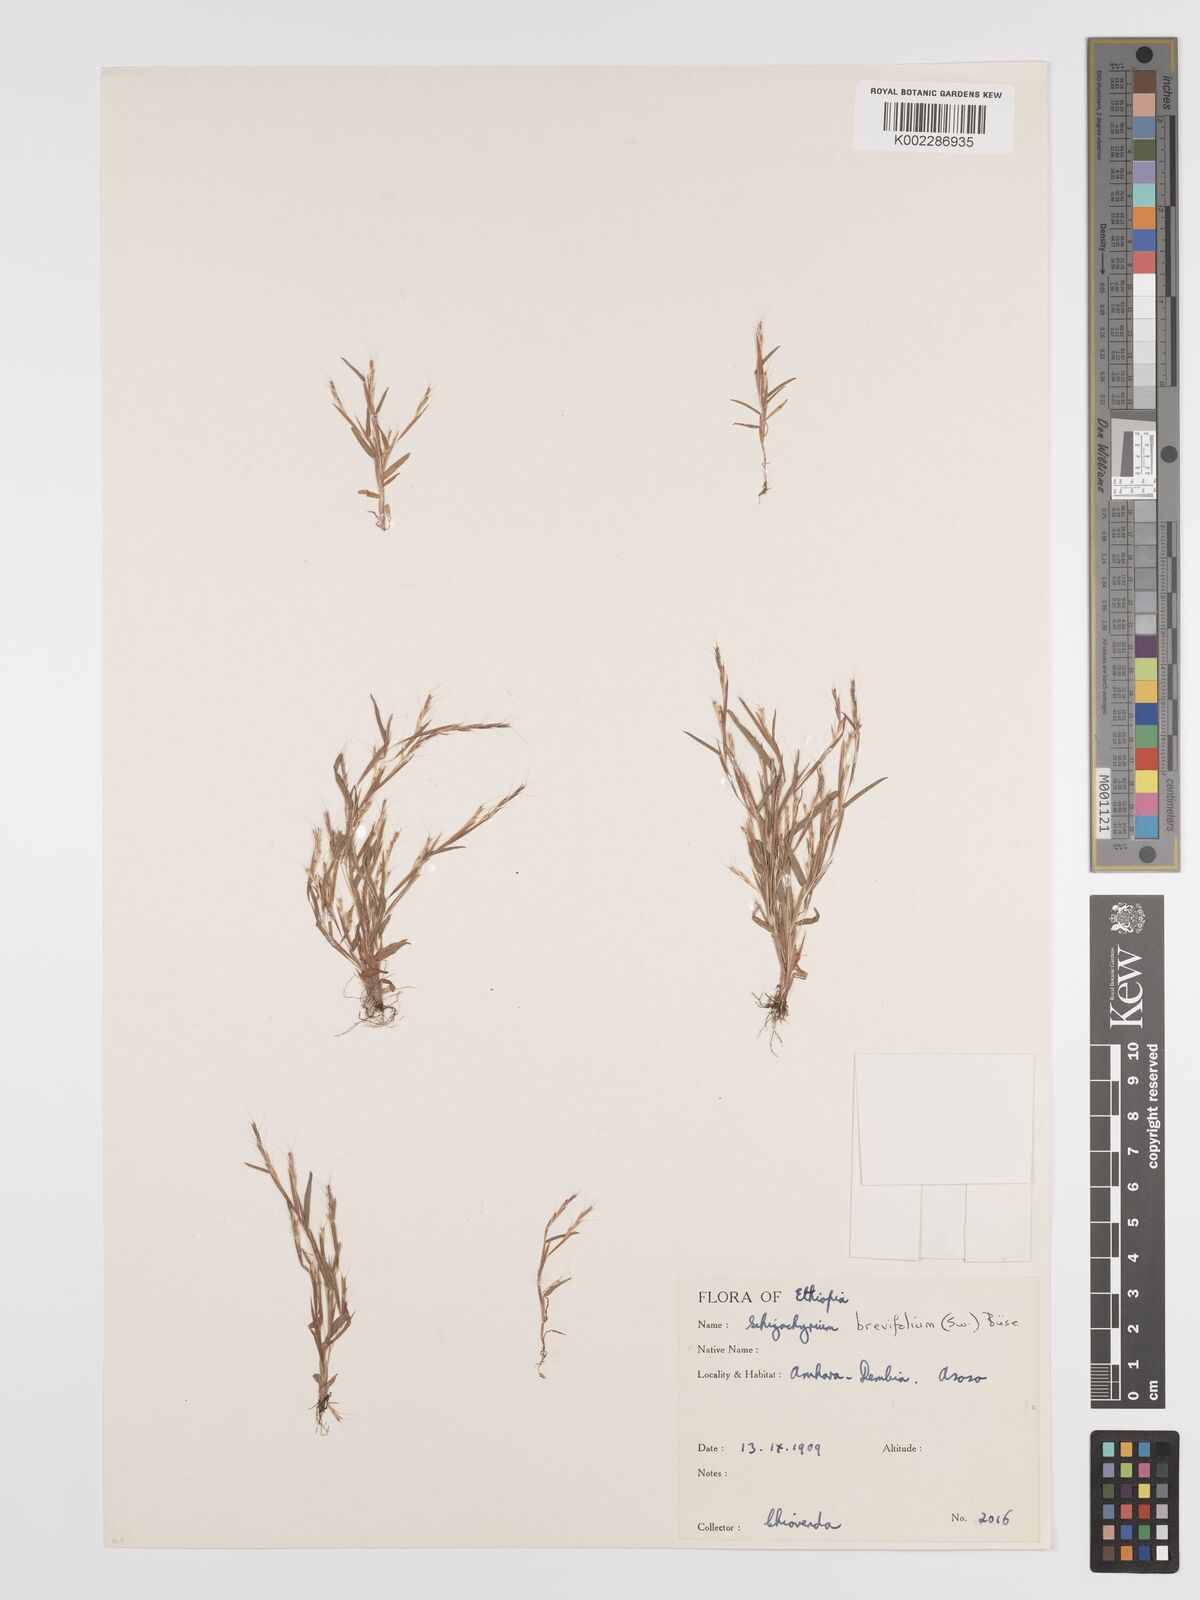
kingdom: Plantae
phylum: Tracheophyta
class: Liliopsida
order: Poales
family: Poaceae
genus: Schizachyrium
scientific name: Schizachyrium brevifolium
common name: Serillo dulce
